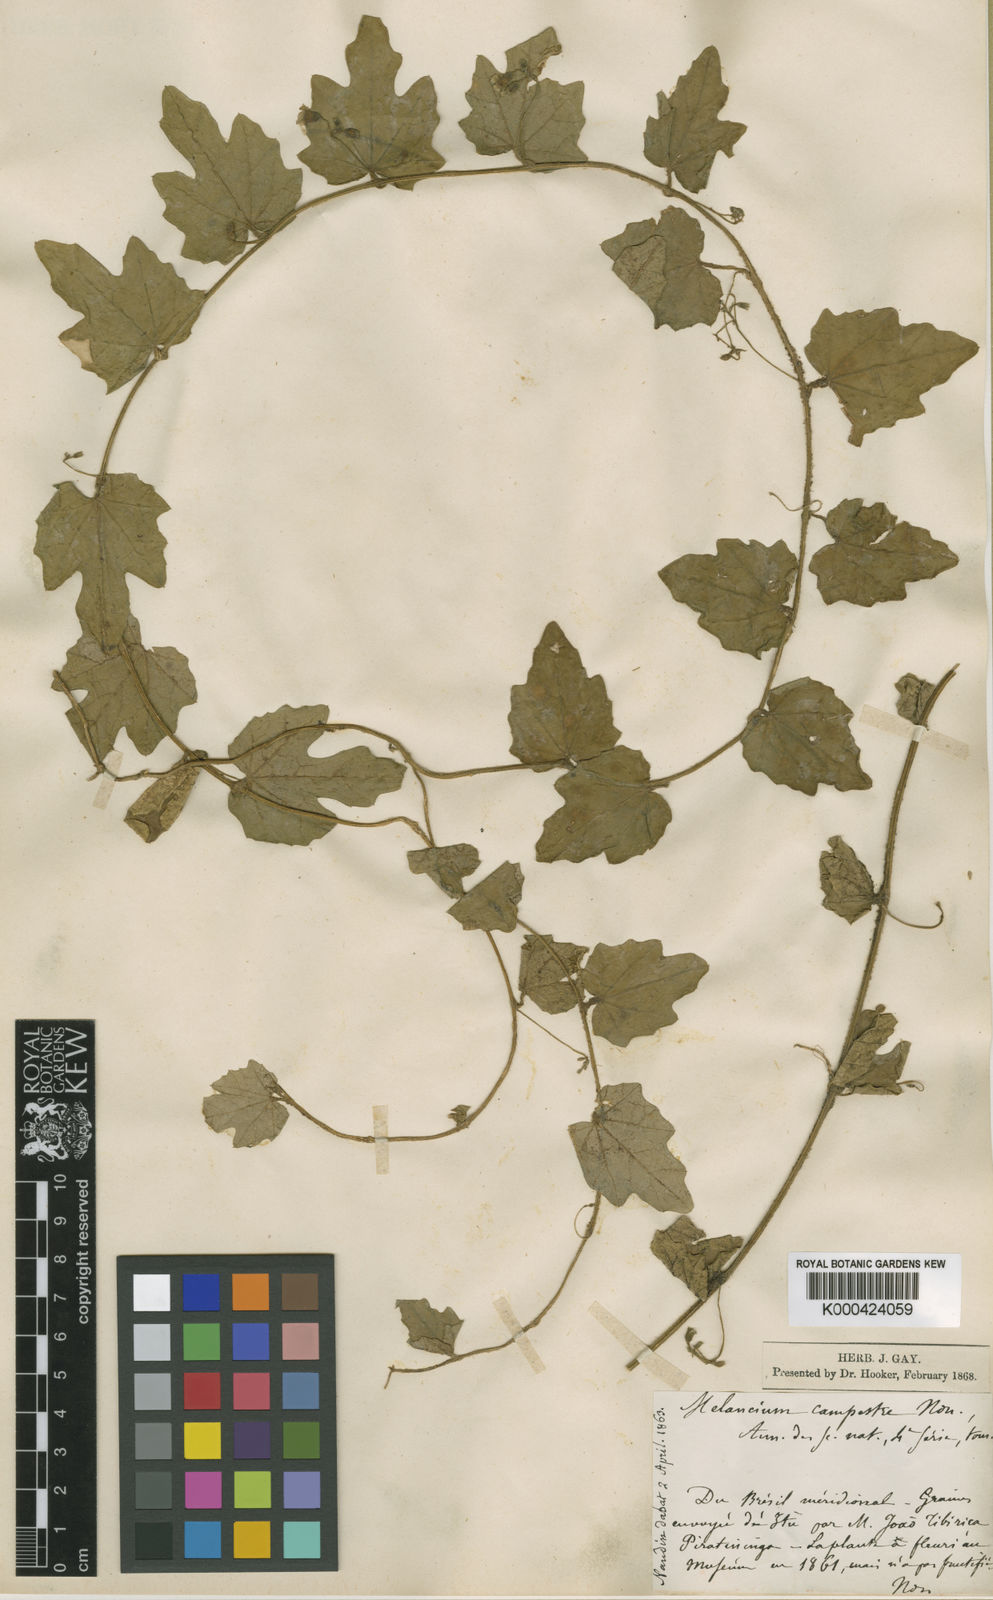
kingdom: Plantae
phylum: Tracheophyta
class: Magnoliopsida
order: Cucurbitales
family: Cucurbitaceae
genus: Melothria
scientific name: Melothria campestris
